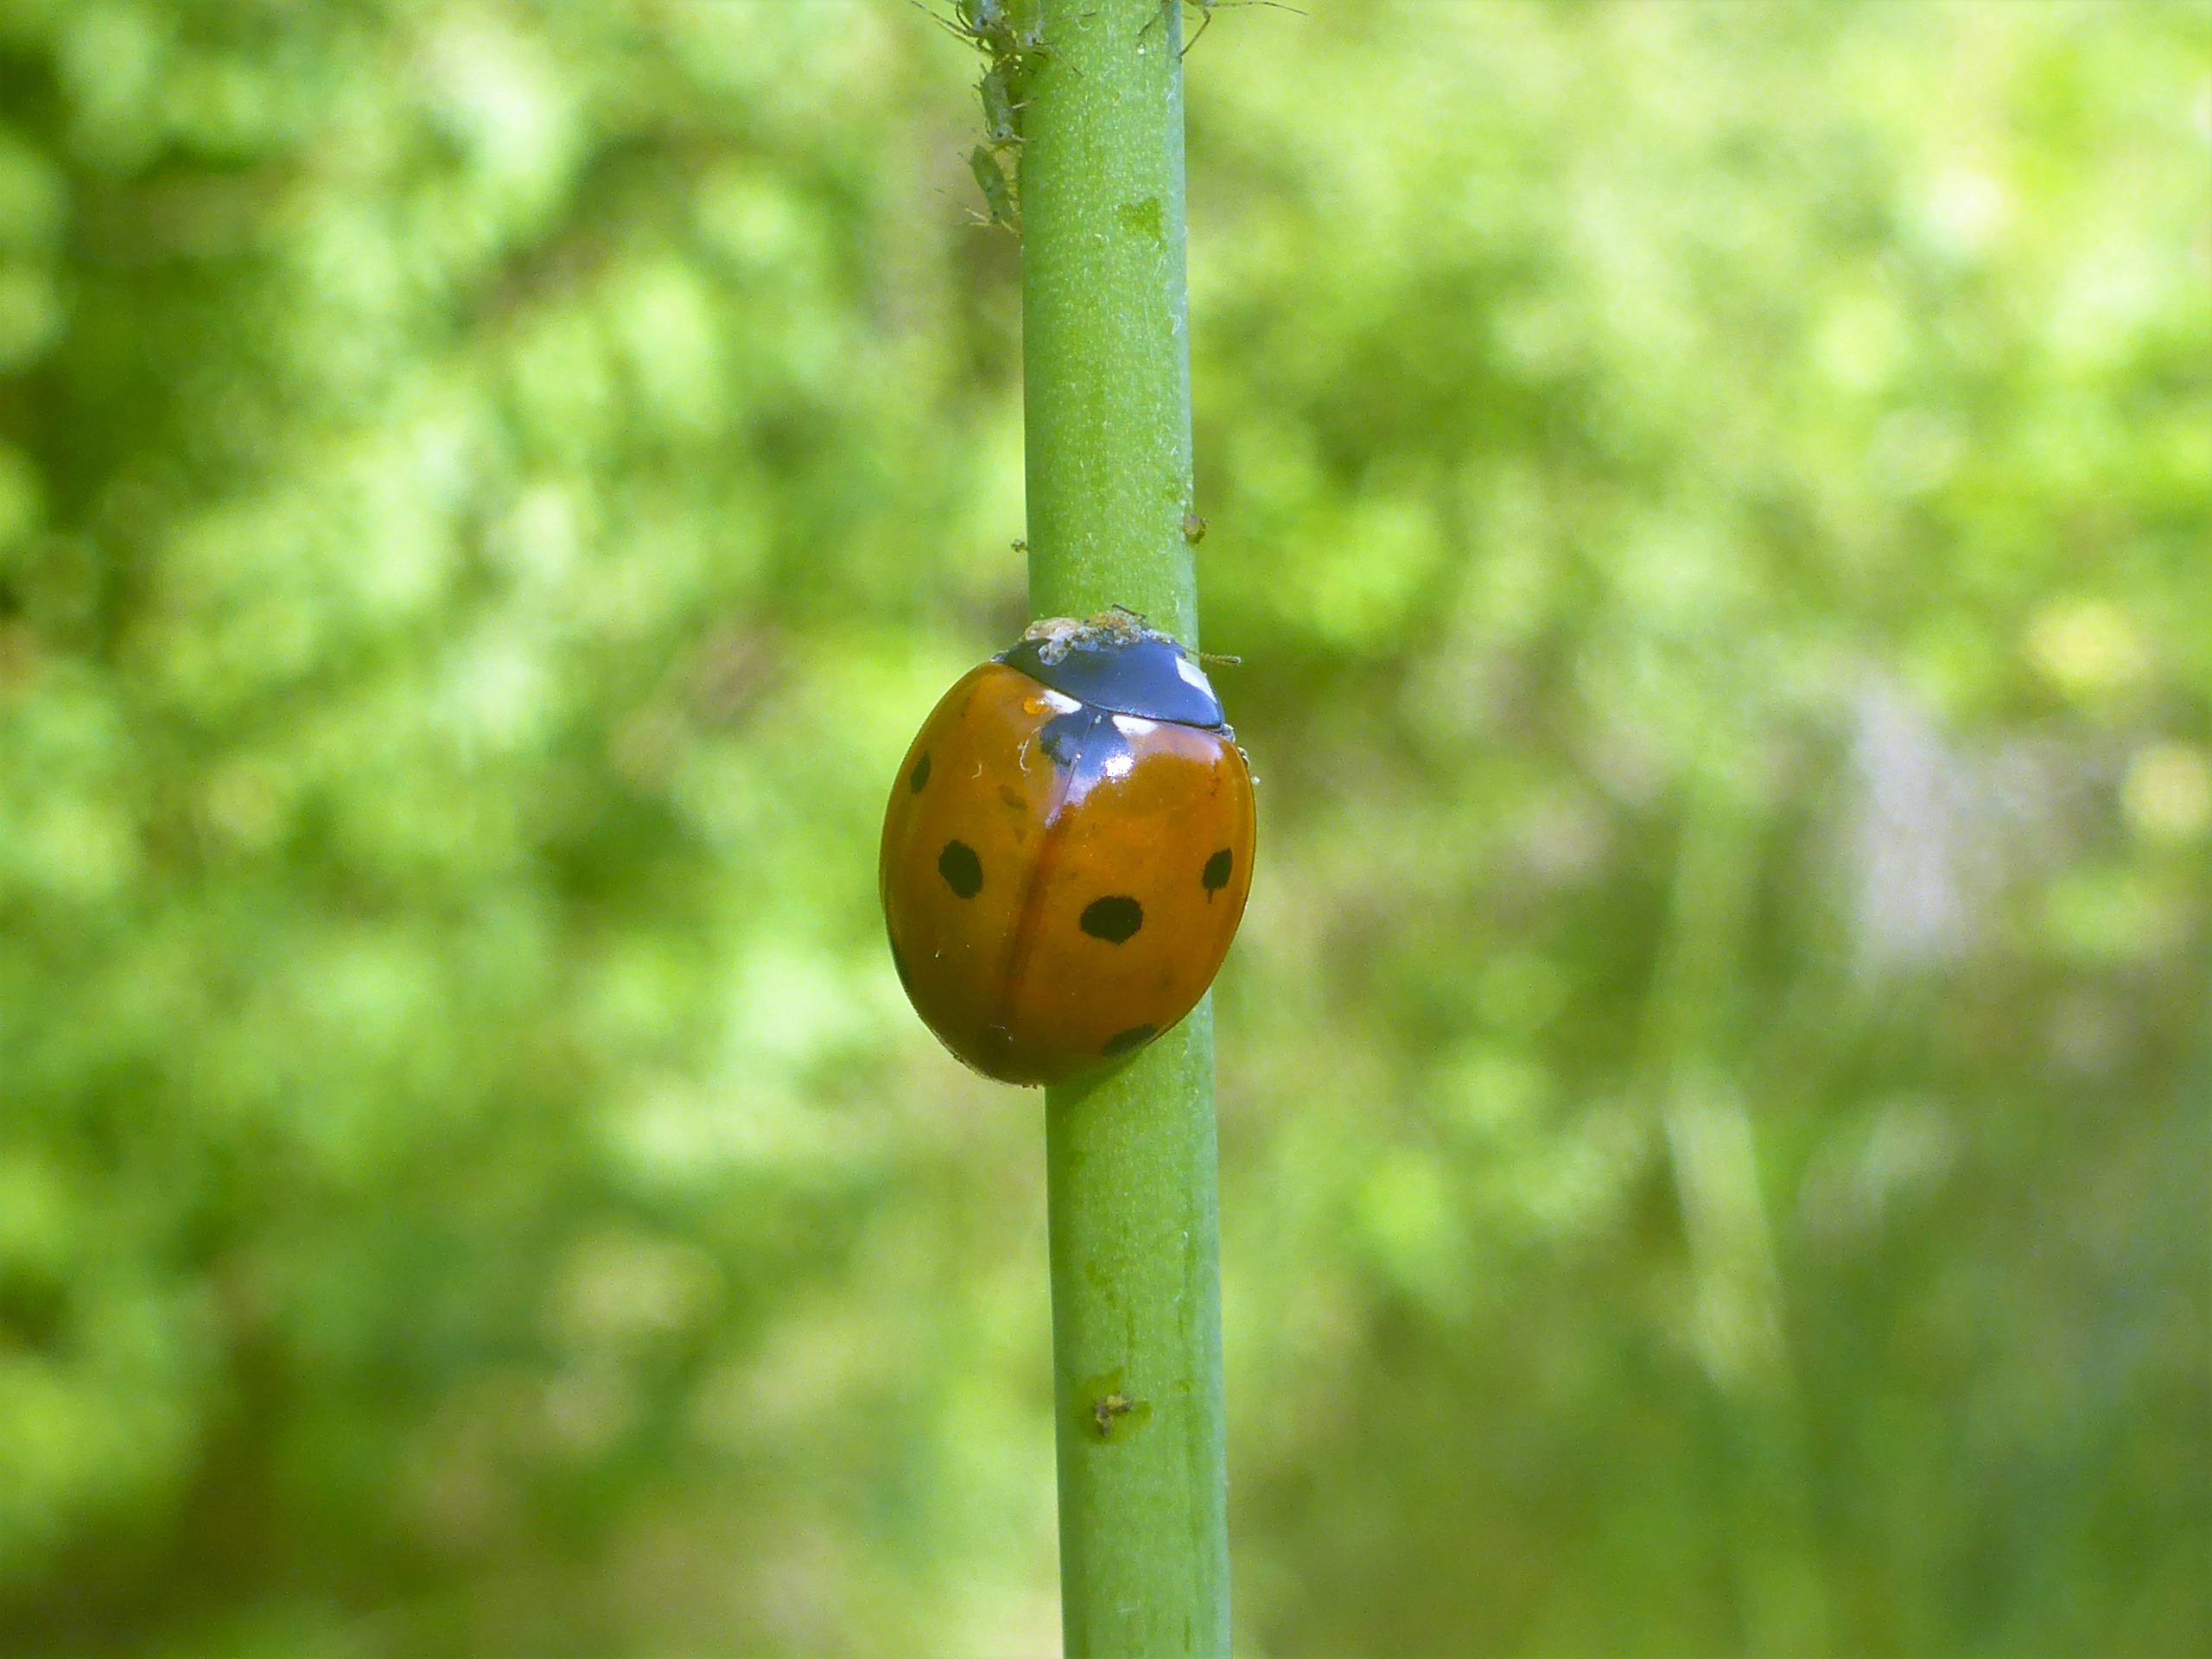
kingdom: Animalia
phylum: Arthropoda
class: Insecta
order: Coleoptera
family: Coccinellidae
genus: Coccinella
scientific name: Coccinella septempunctata
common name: Syvplettet mariehøne
